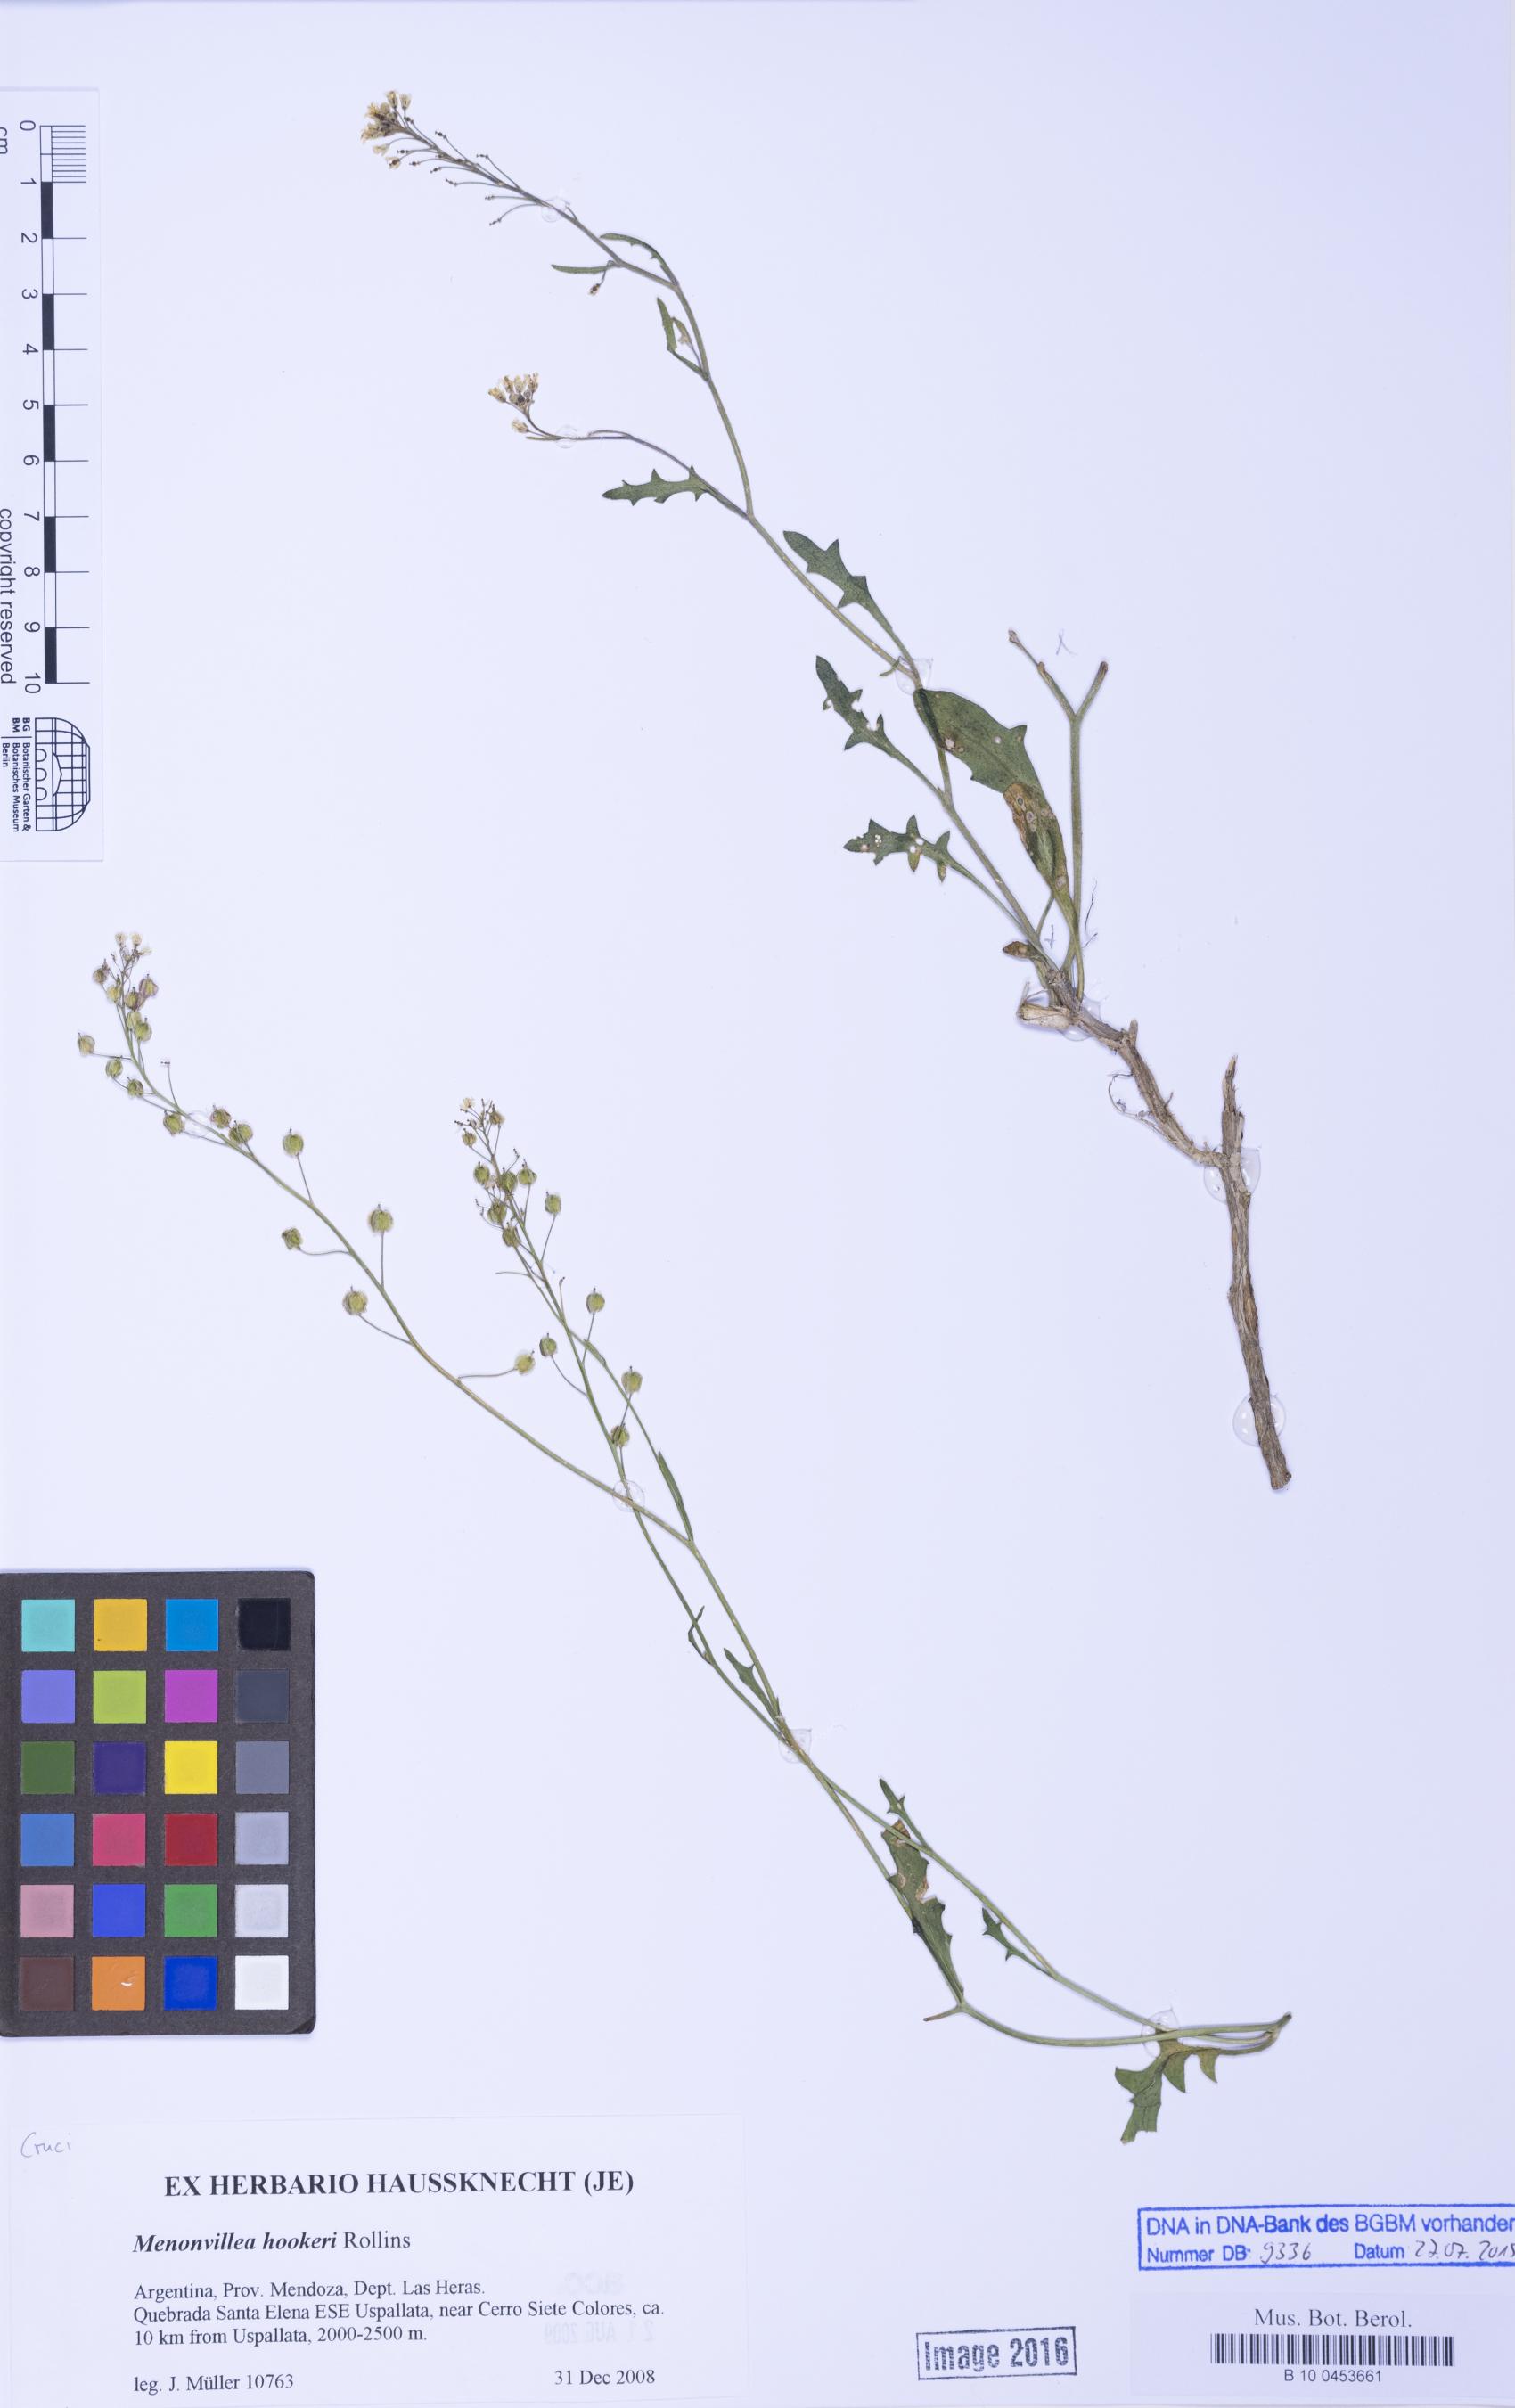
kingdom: Plantae
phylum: Tracheophyta
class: Magnoliopsida
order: Brassicales
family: Brassicaceae
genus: Menonvillea
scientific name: Menonvillea scapigera
